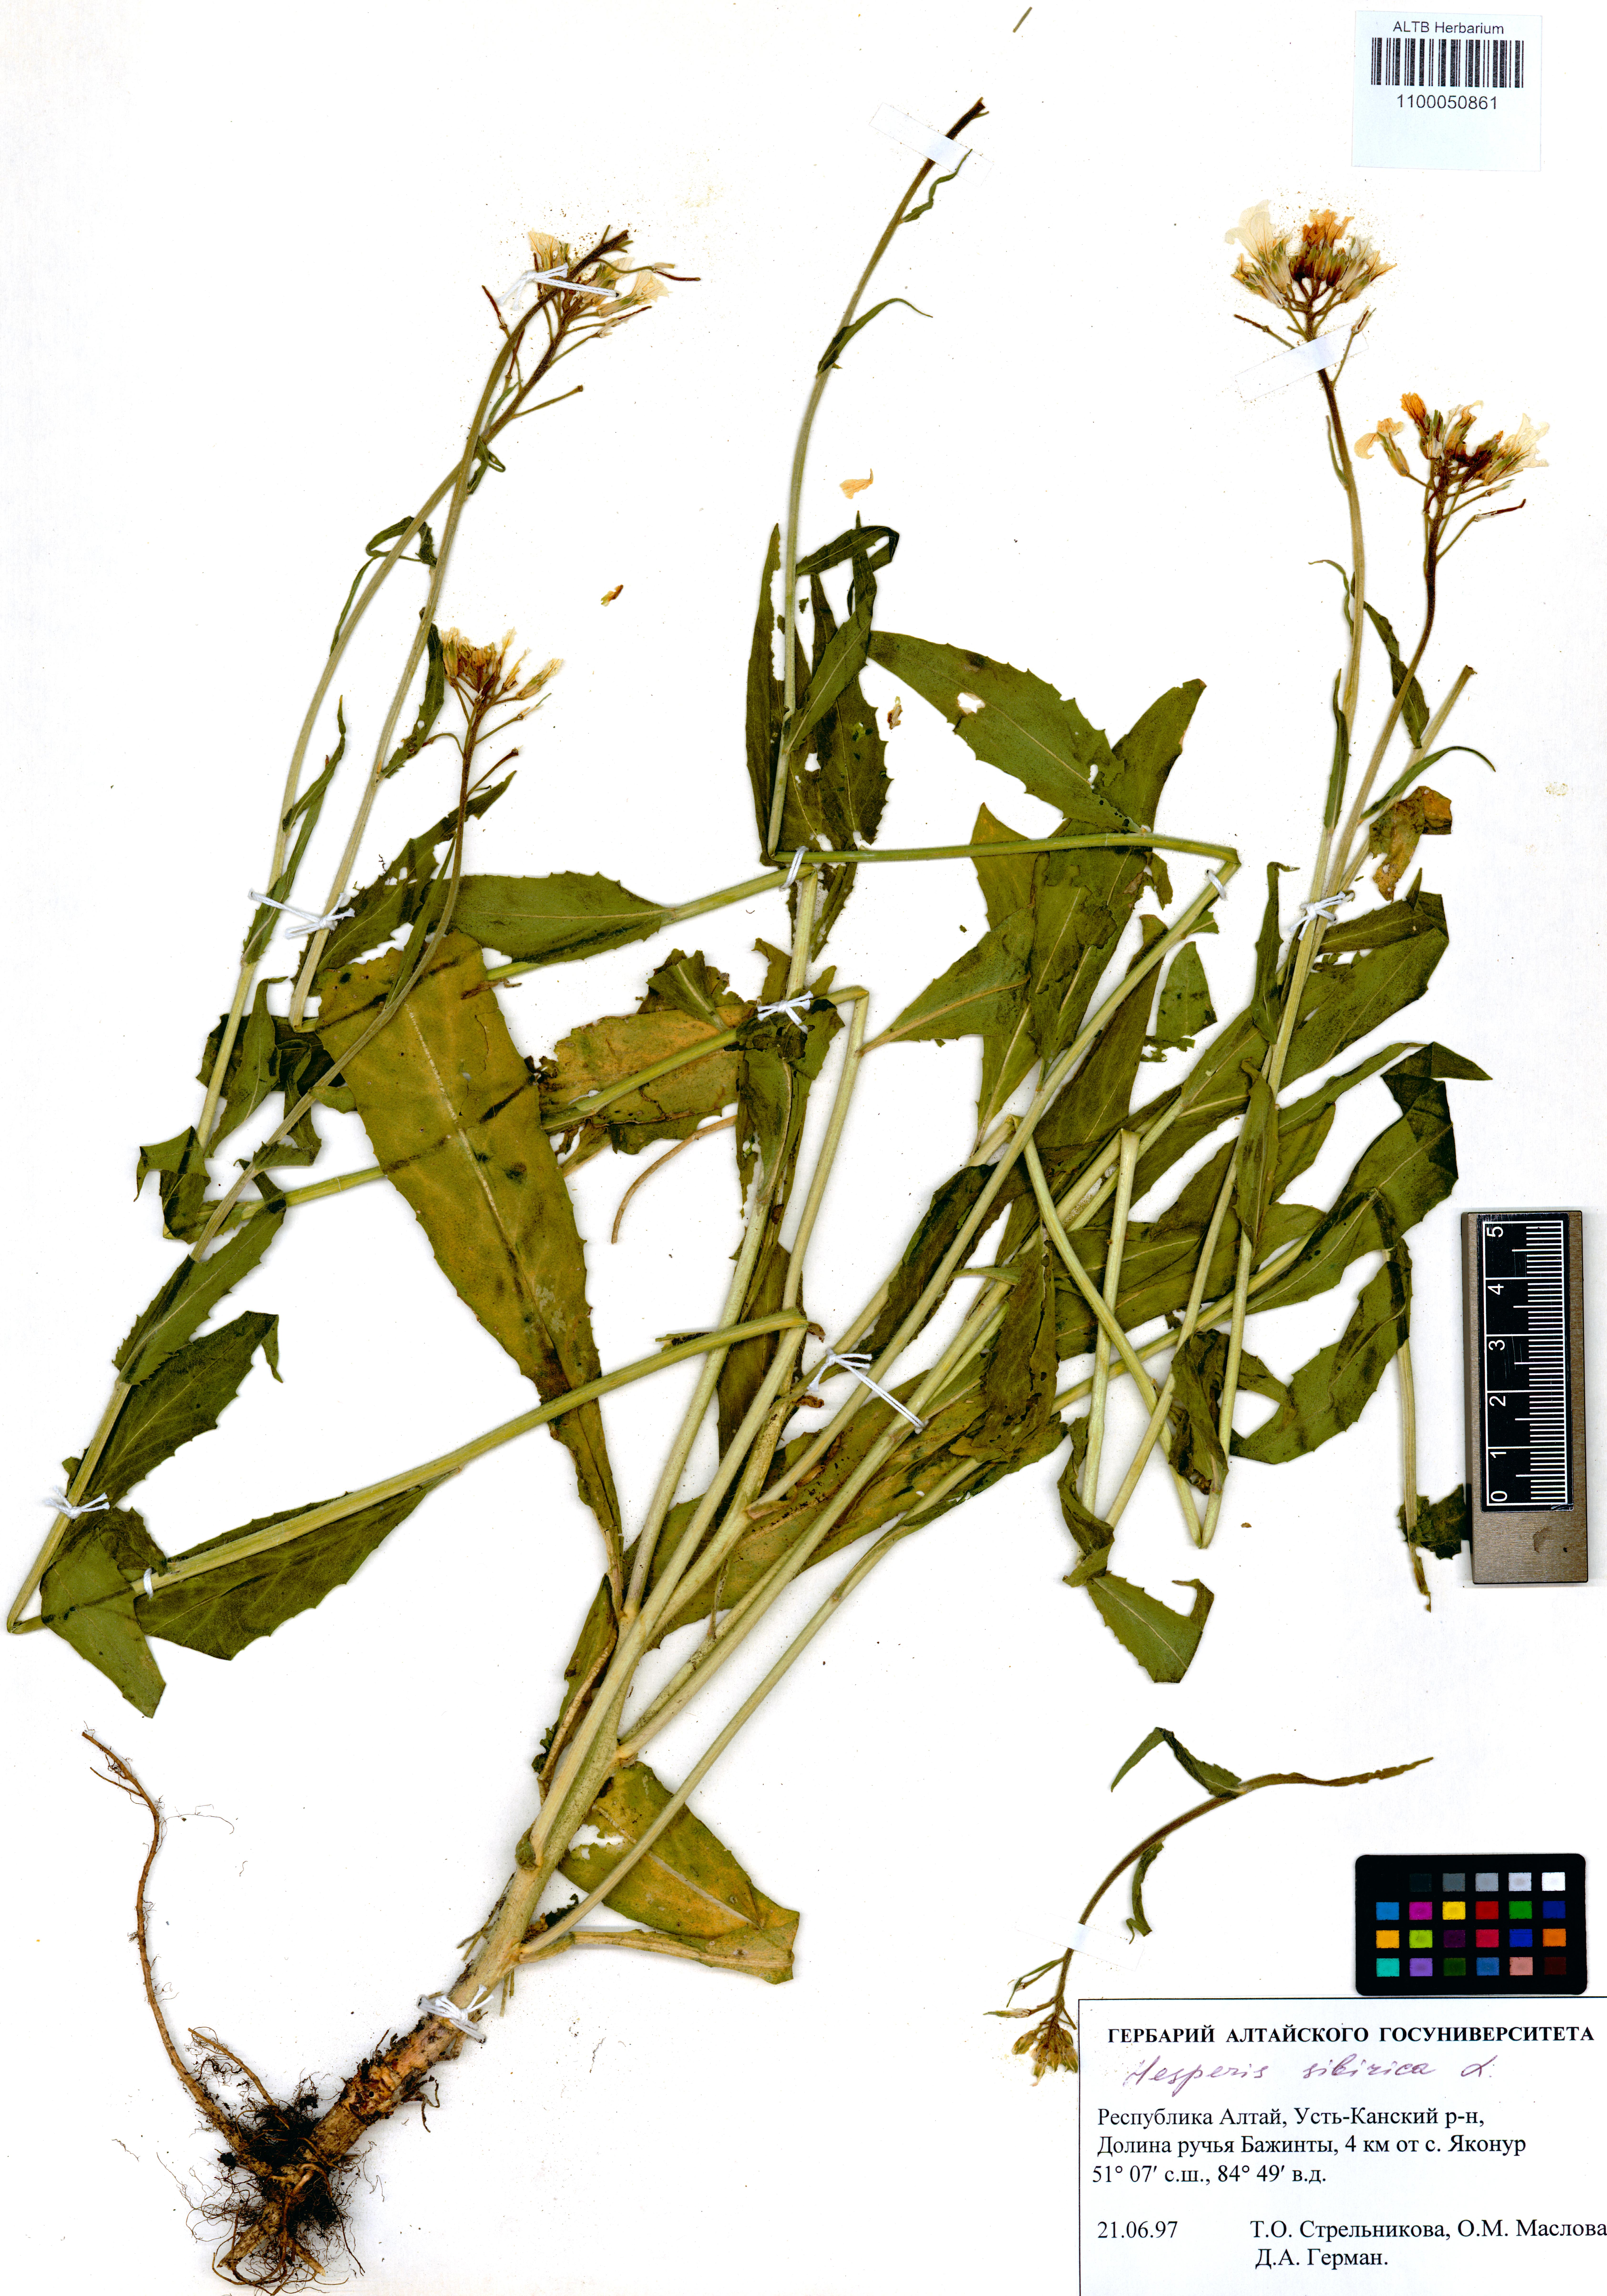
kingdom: Plantae
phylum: Tracheophyta
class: Magnoliopsida
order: Brassicales
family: Brassicaceae
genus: Hesperis
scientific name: Hesperis sibirica
